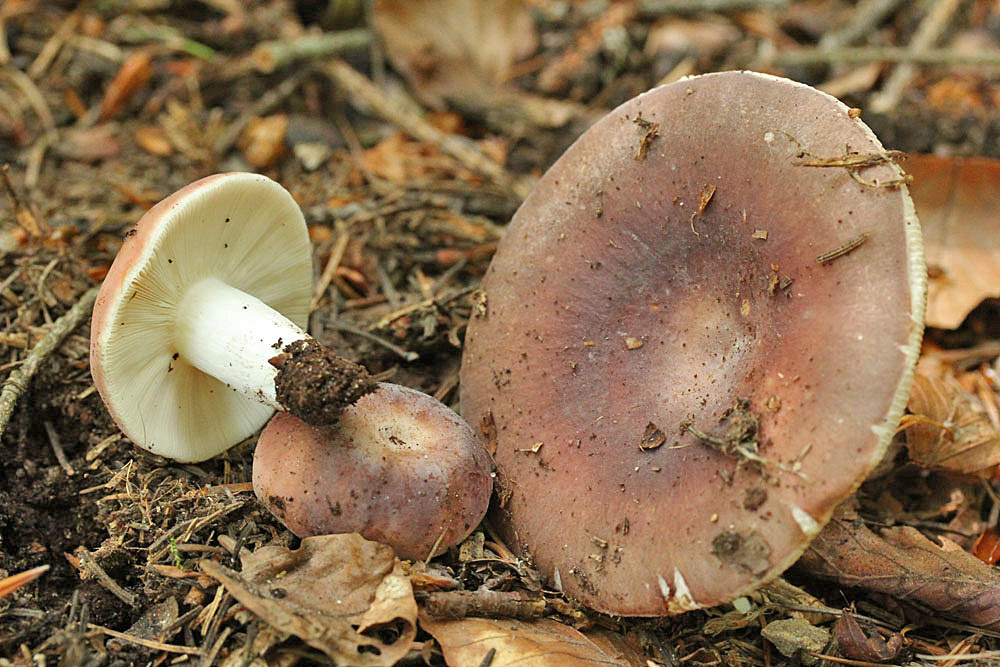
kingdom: Fungi
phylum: Basidiomycota
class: Agaricomycetes
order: Russulales
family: Russulaceae
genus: Russula
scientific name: Russula vesca
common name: spiselig skørhat
